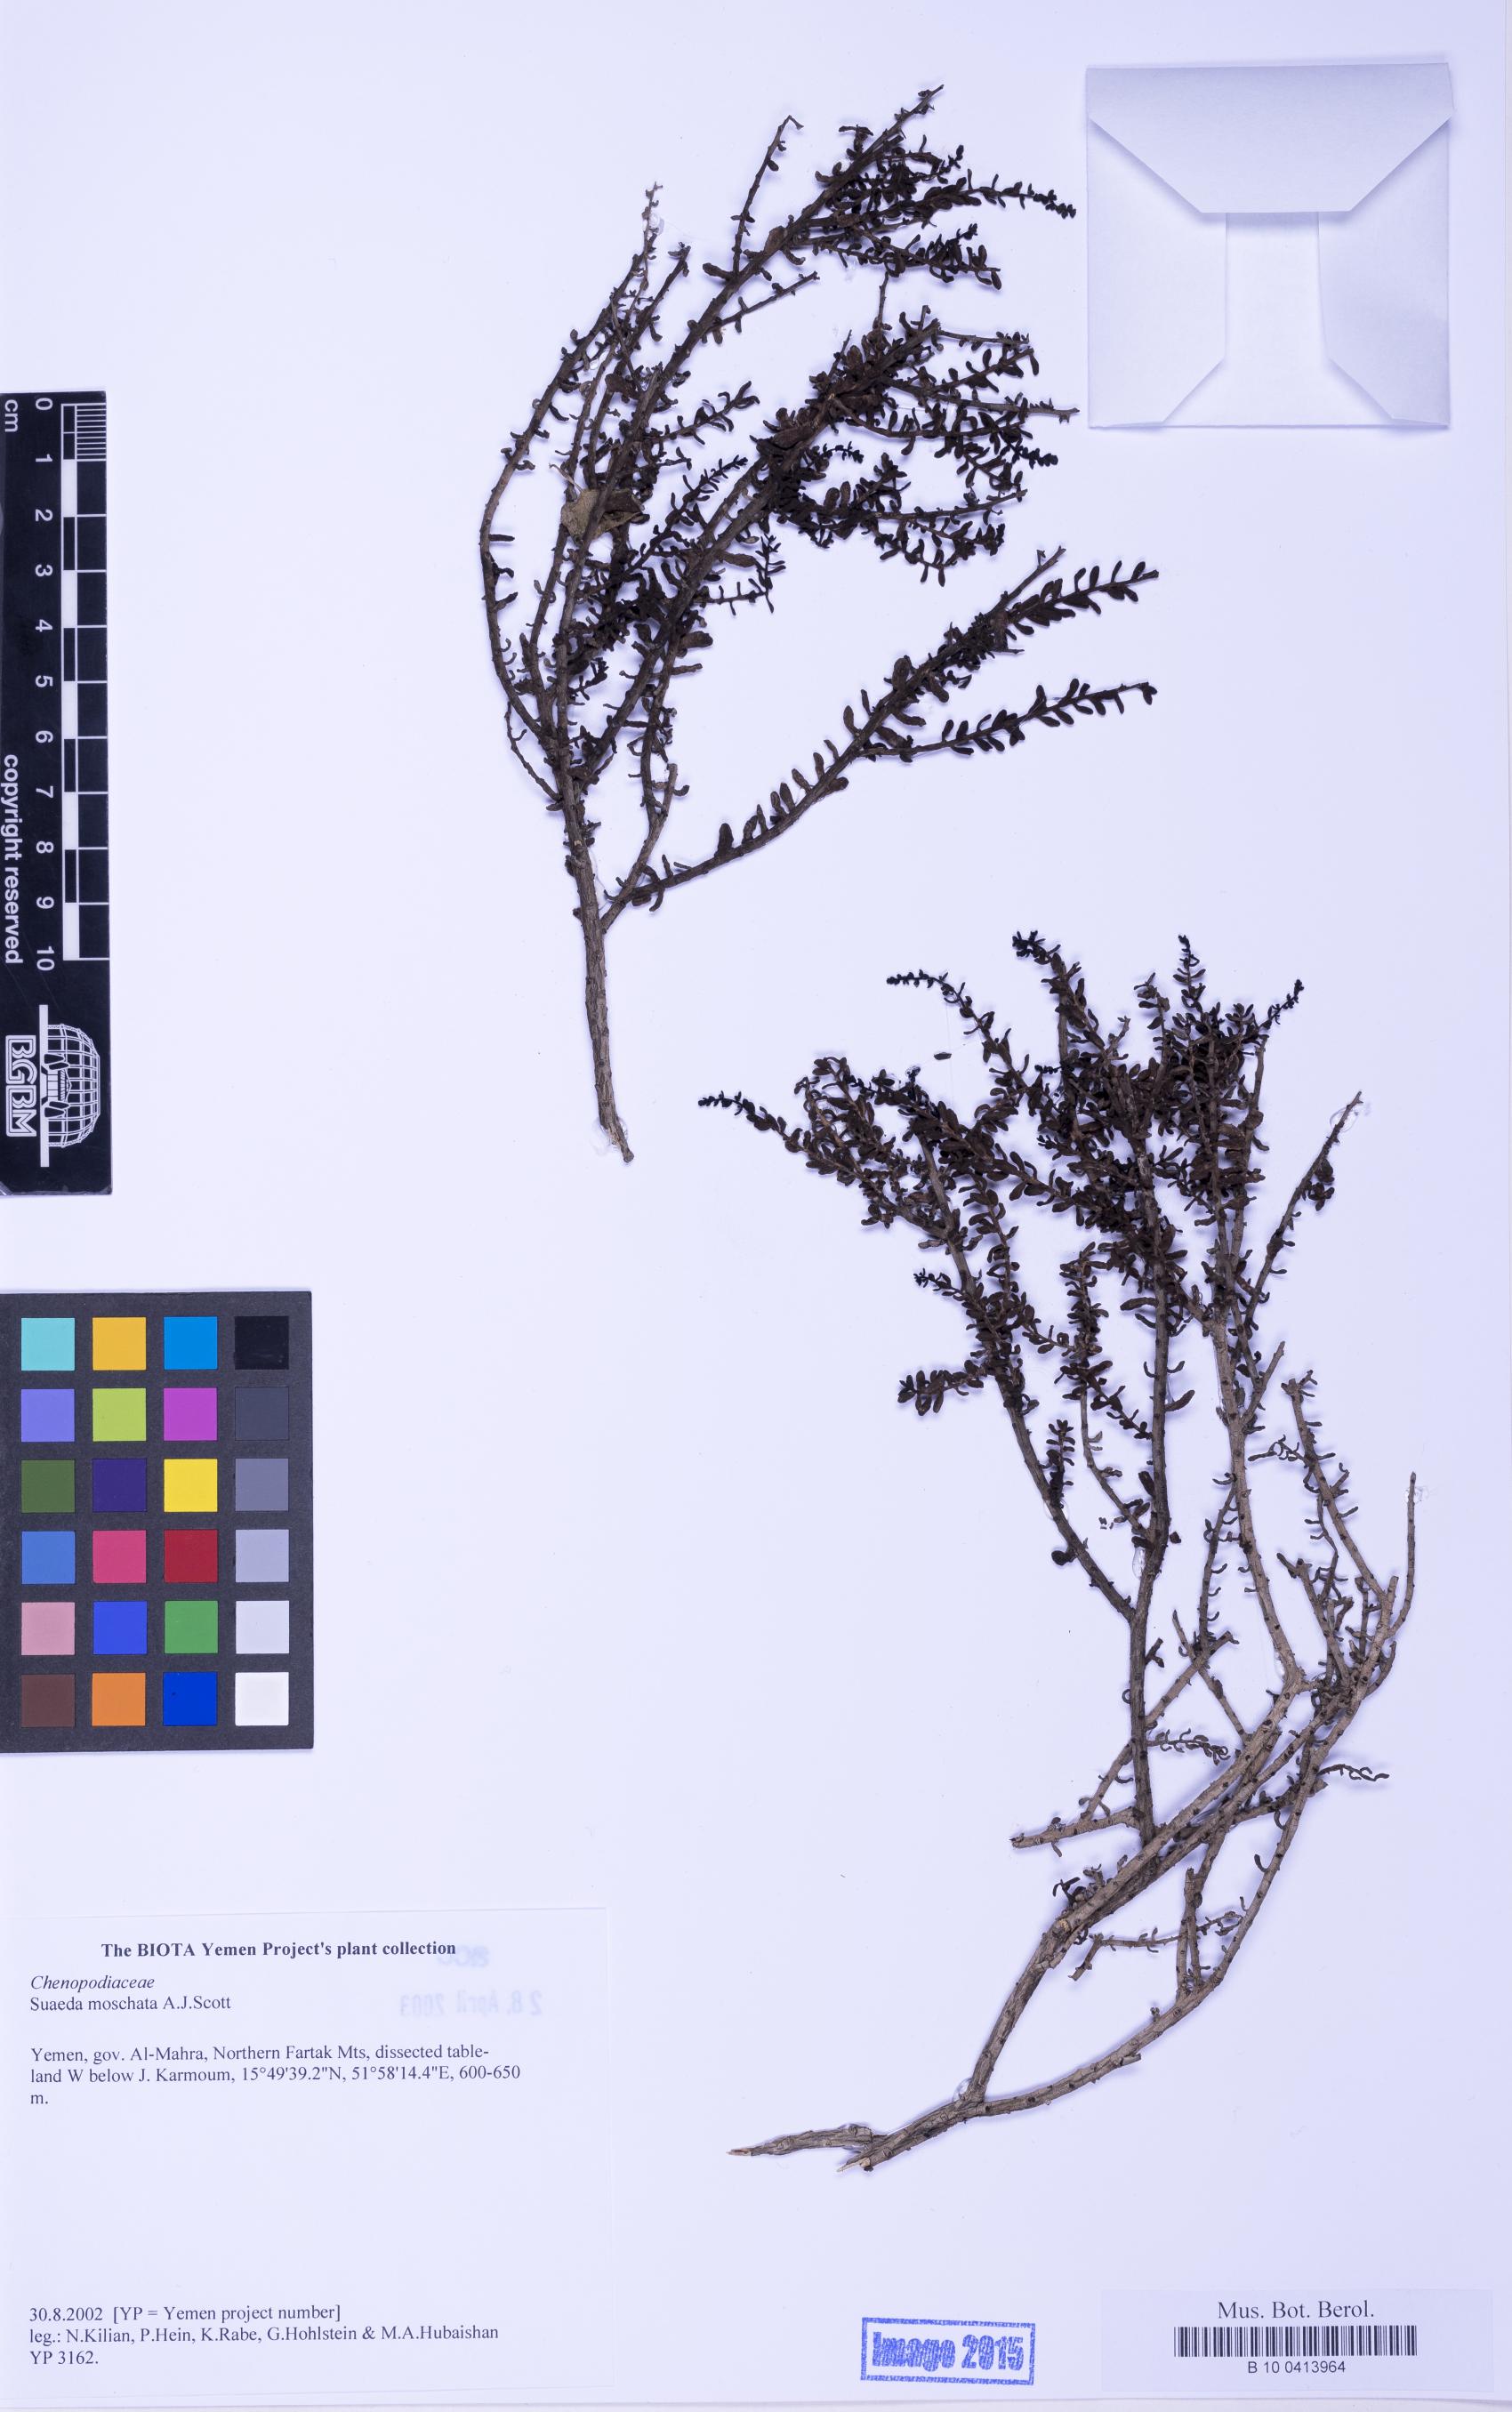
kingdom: Plantae
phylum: Tracheophyta
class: Magnoliopsida
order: Caryophyllales
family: Amaranthaceae
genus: Suaeda
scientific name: Suaeda moschata
